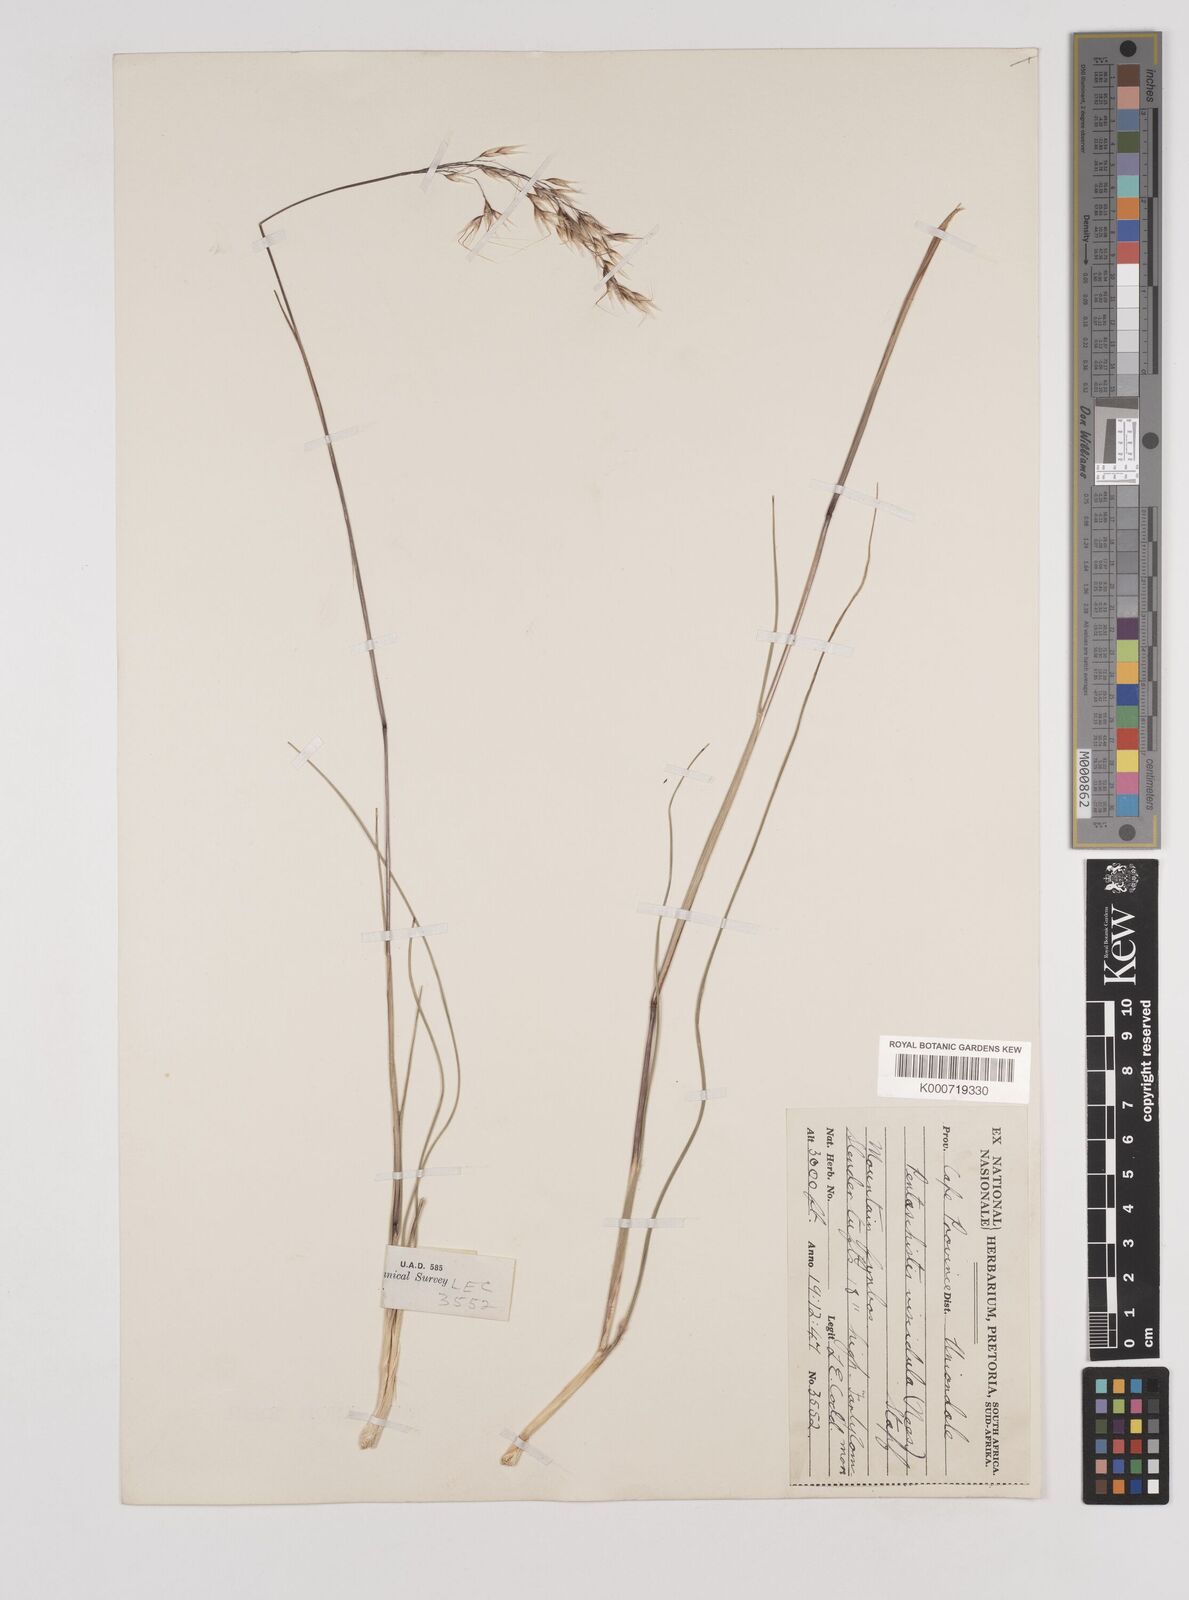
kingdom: Plantae
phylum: Tracheophyta
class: Liliopsida
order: Poales
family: Poaceae
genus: Pentameris
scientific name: Pentameris pallescens
